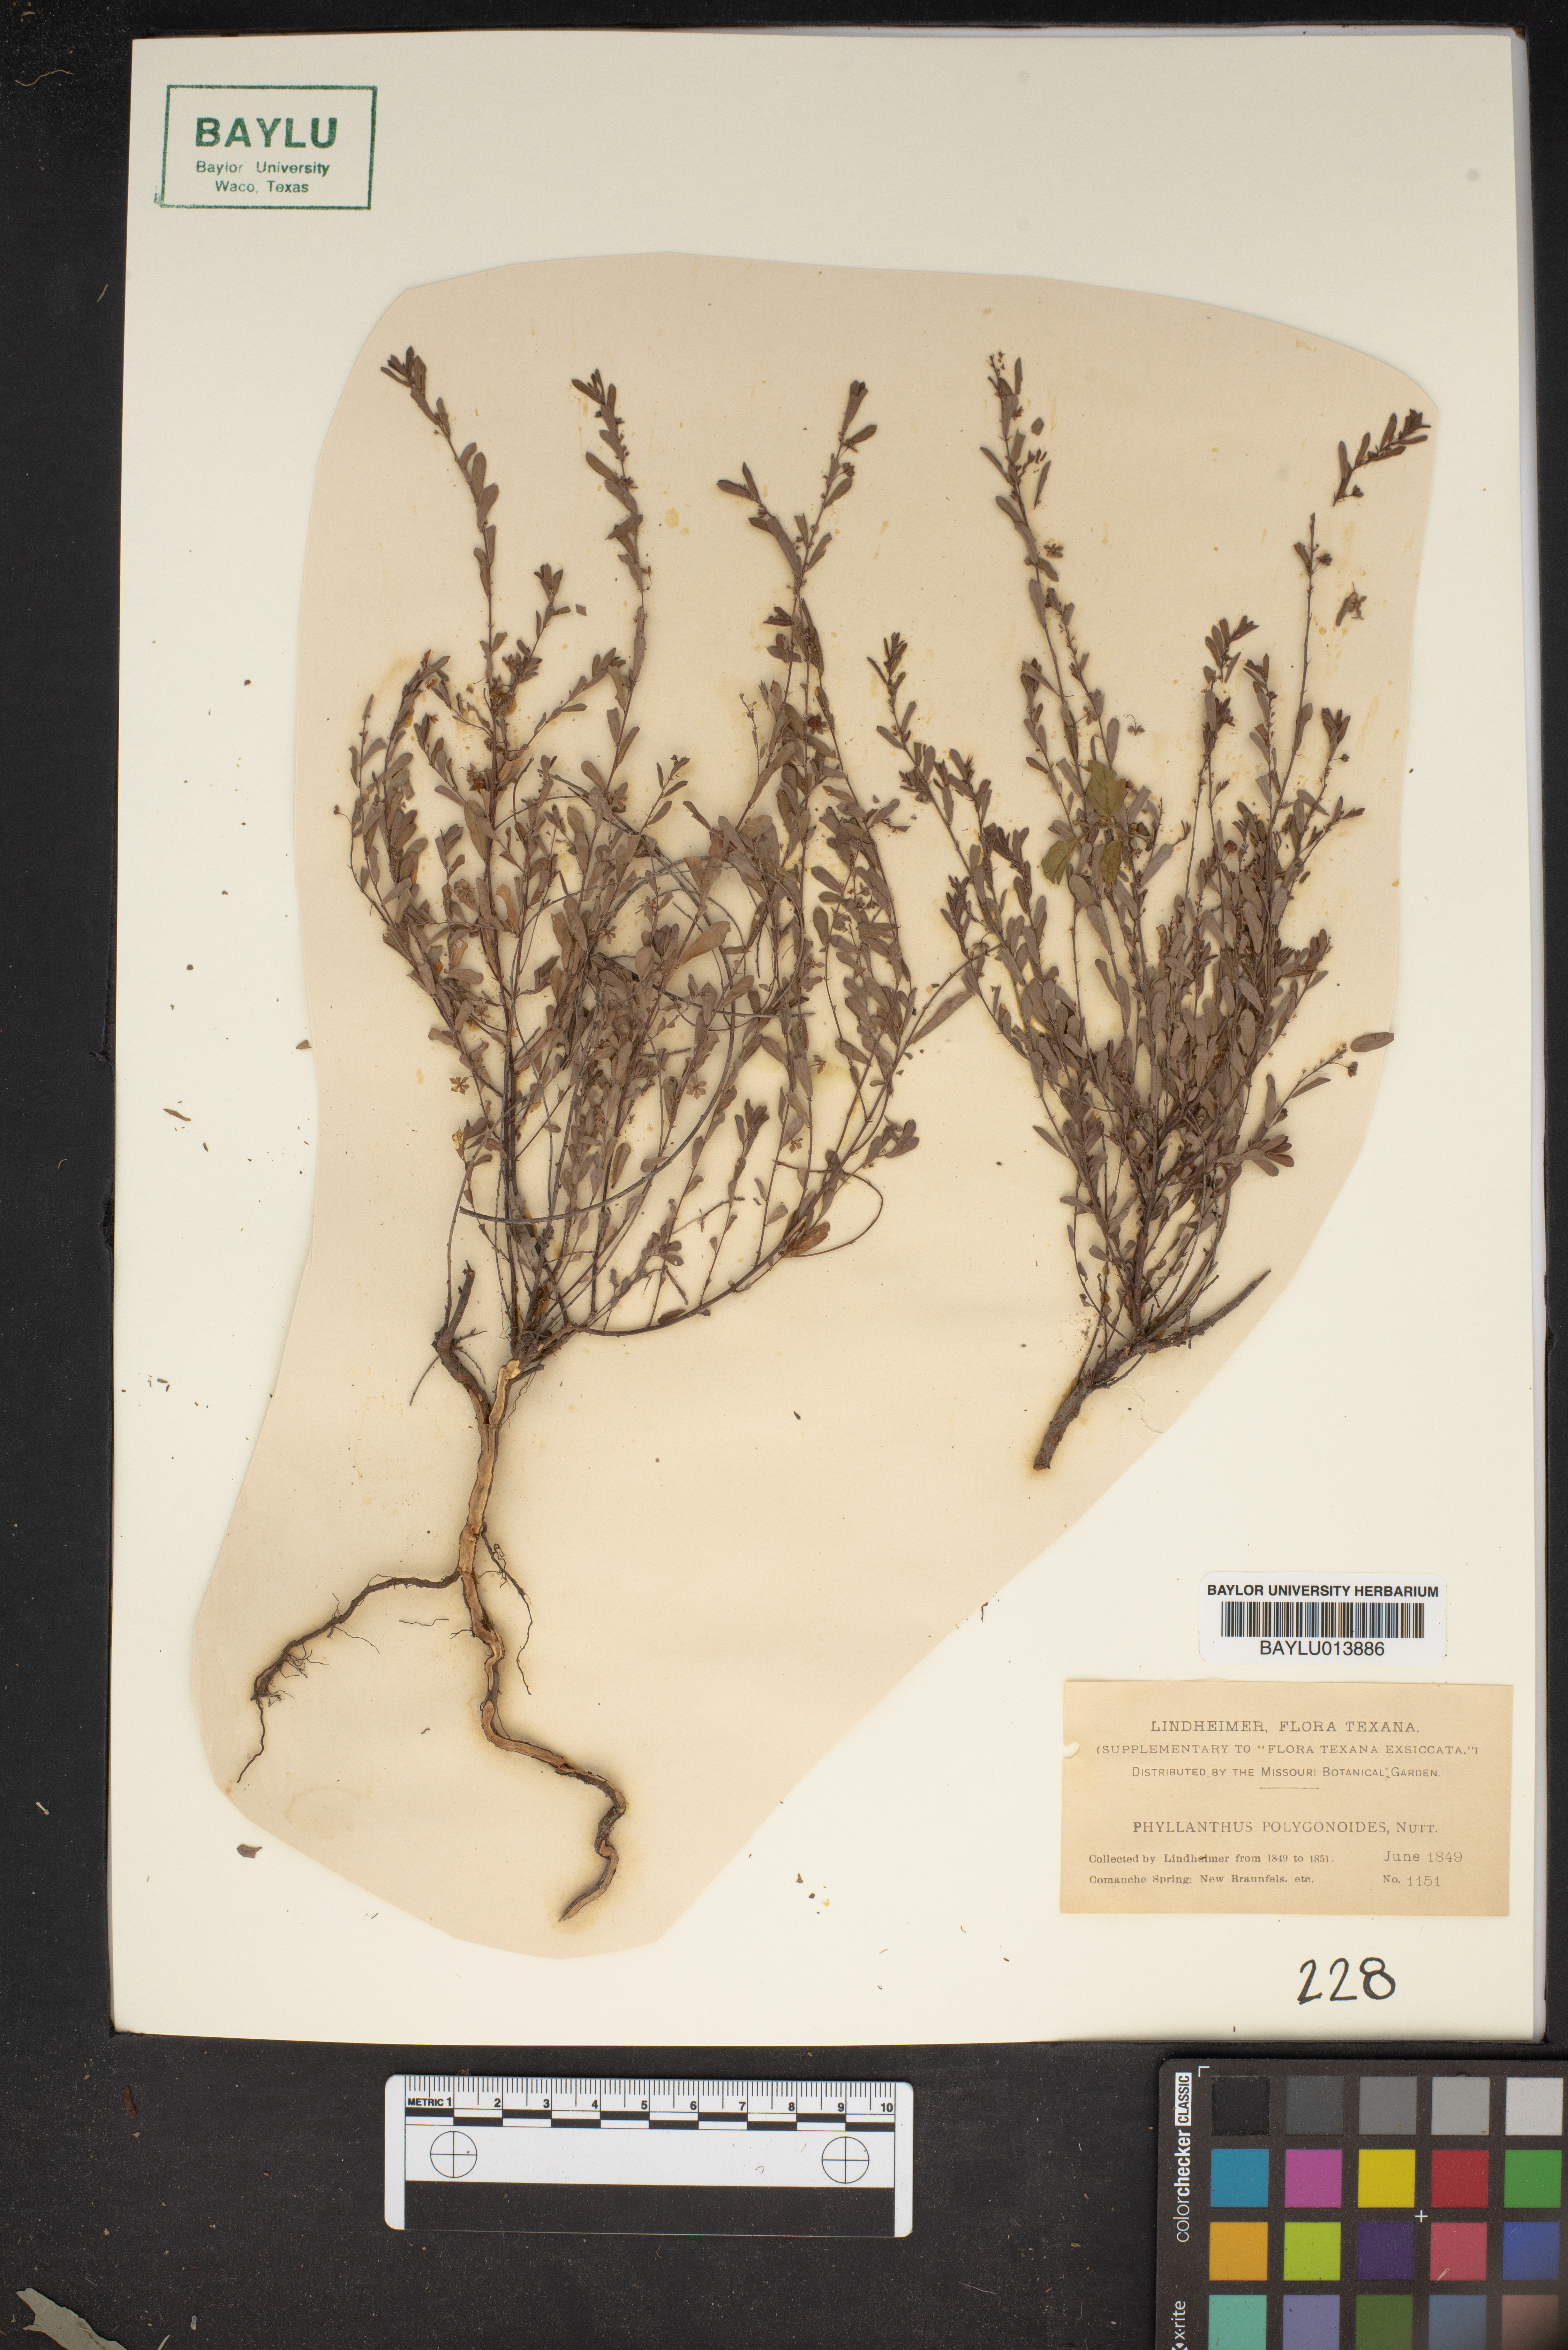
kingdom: Plantae
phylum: Tracheophyta
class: Magnoliopsida
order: Malpighiales
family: Phyllanthaceae
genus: Phyllanthus
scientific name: Phyllanthus polygonoides
